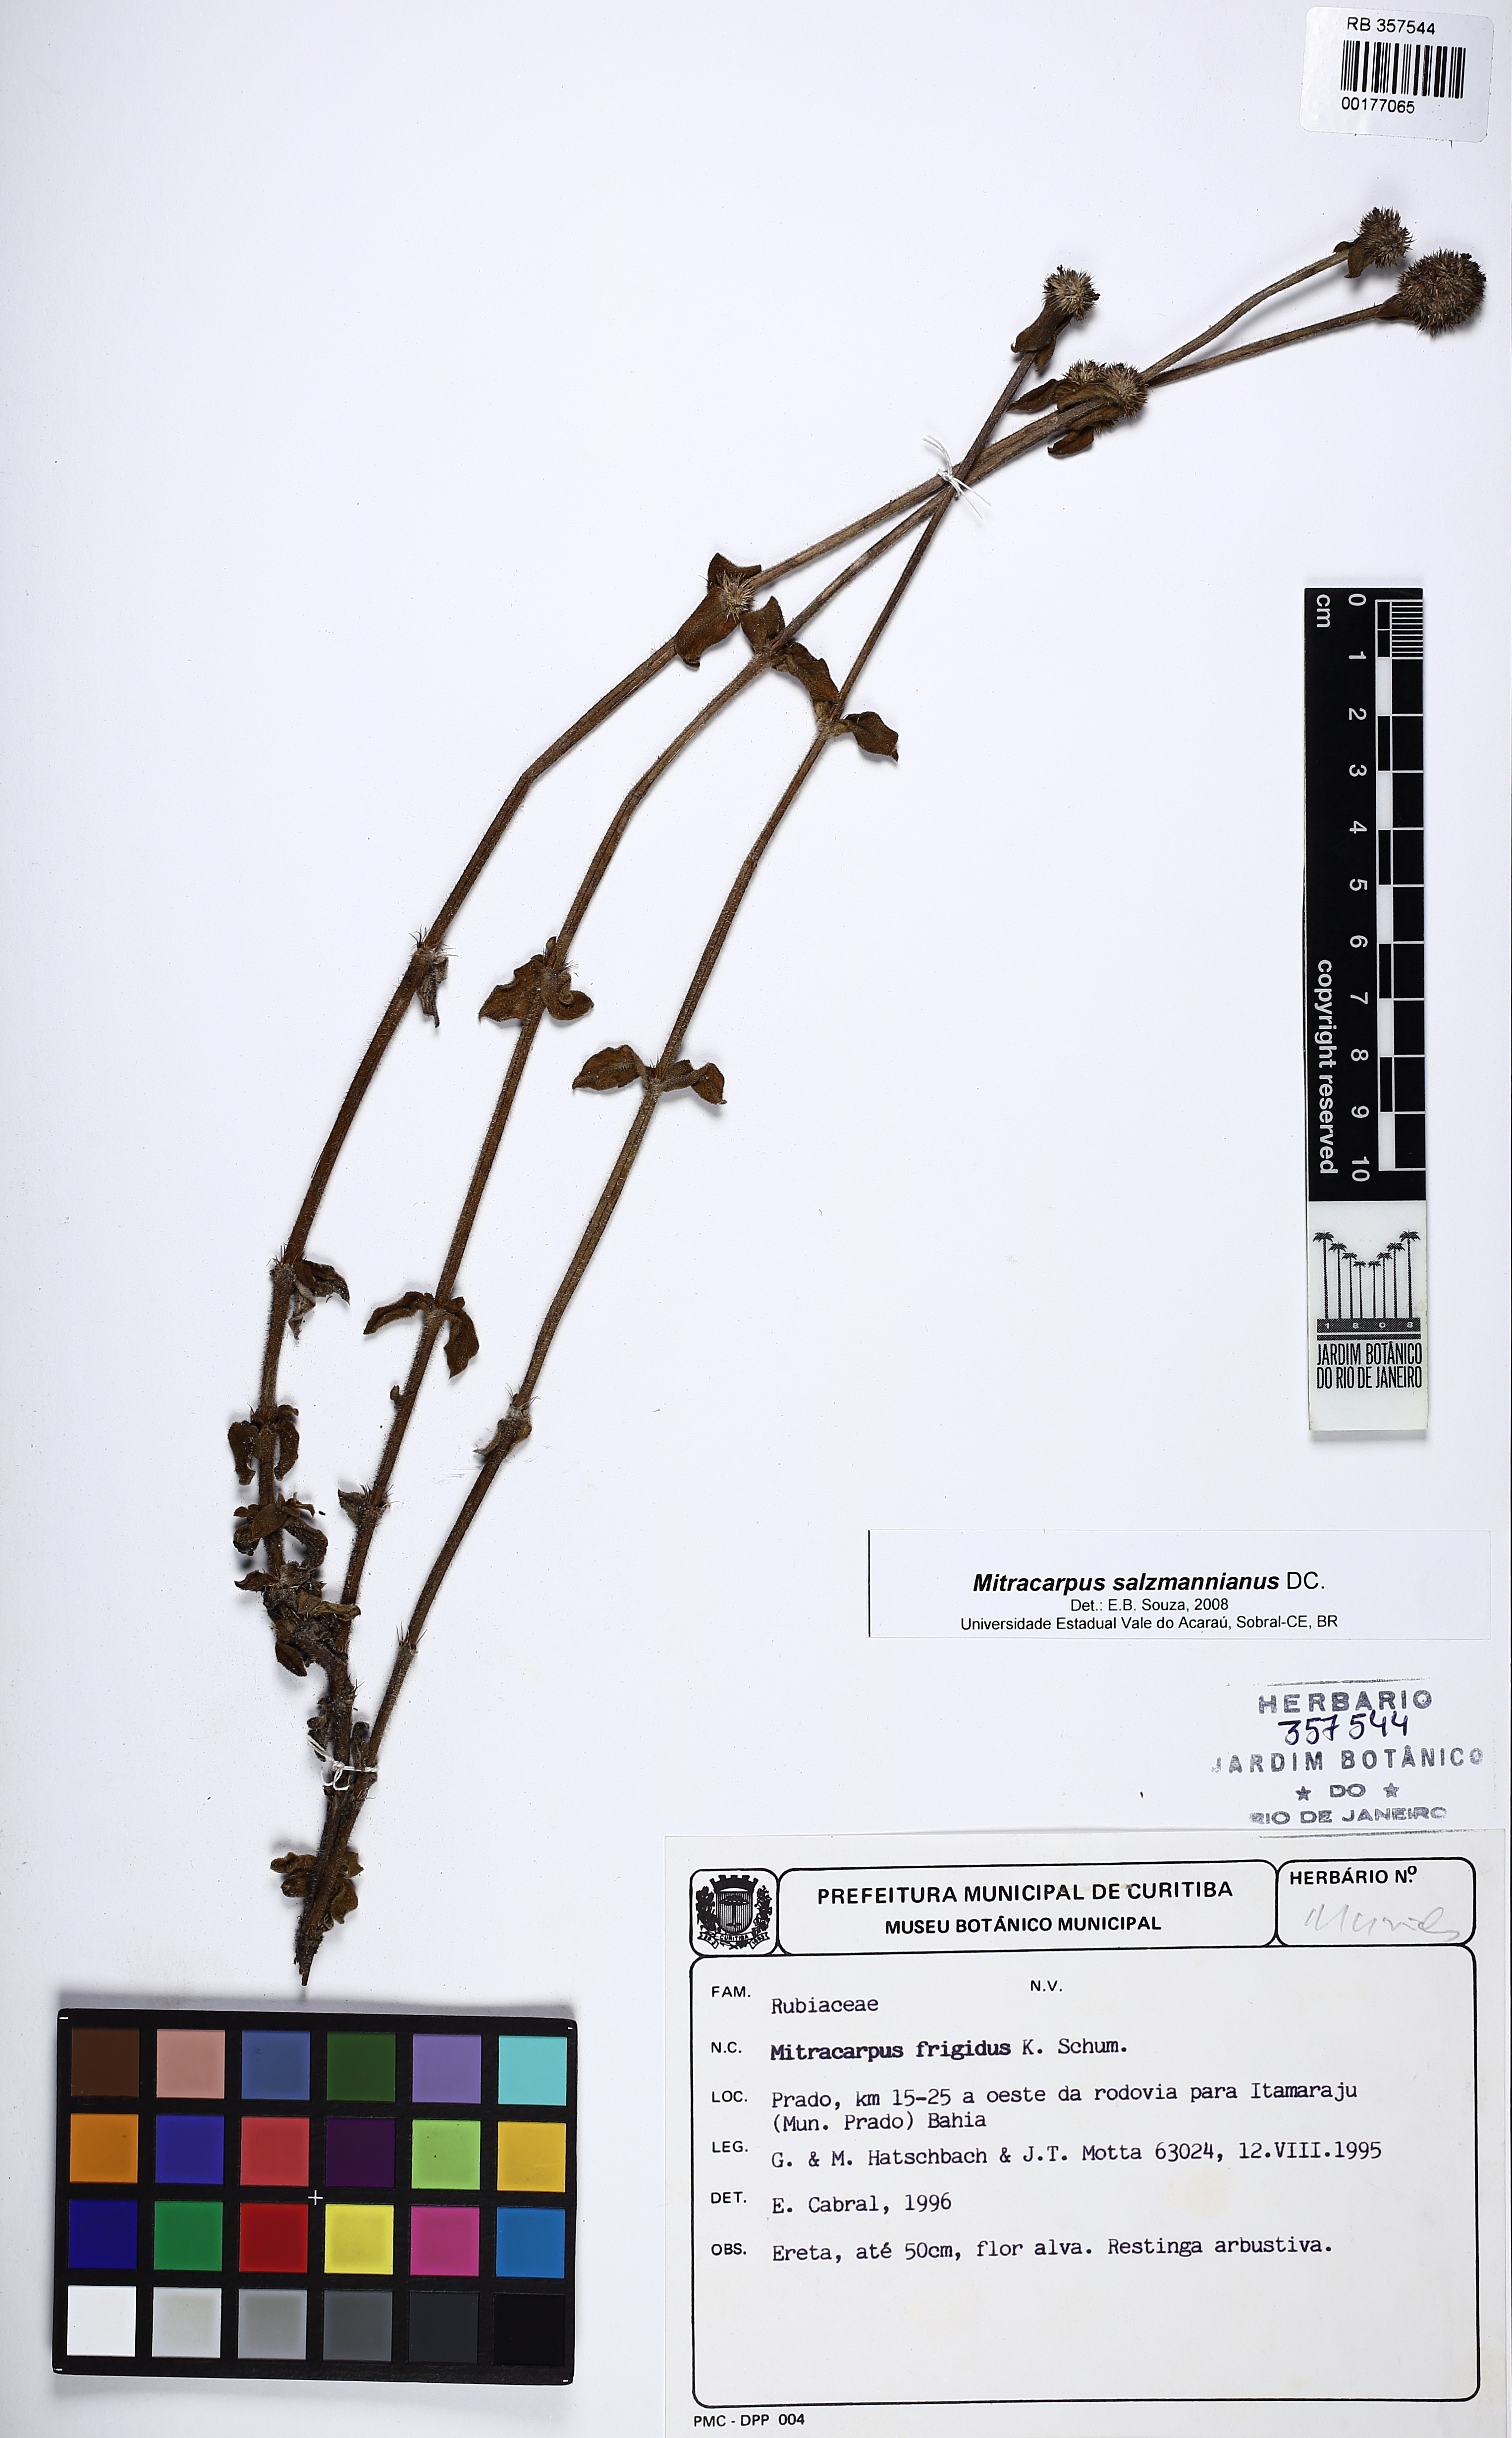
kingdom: Plantae
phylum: Tracheophyta
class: Magnoliopsida
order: Gentianales
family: Rubiaceae
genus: Mitracarpus
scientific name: Mitracarpus salzmannianus
